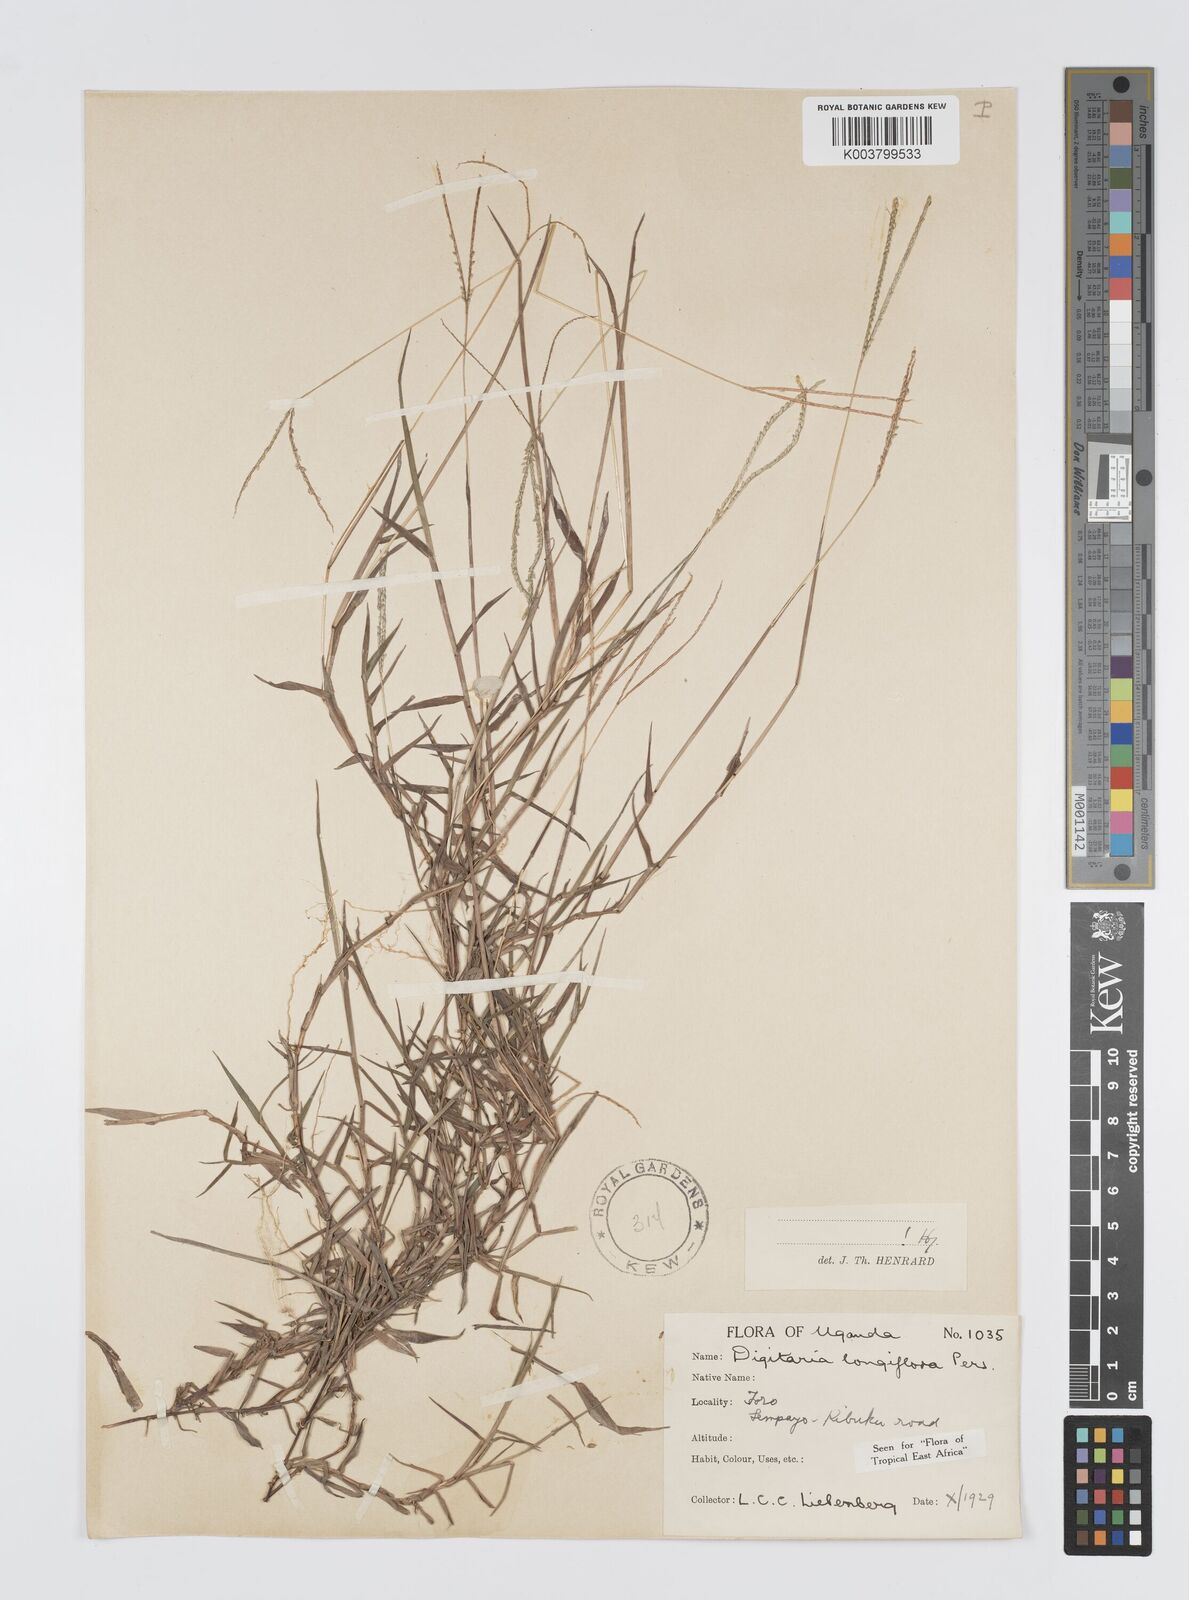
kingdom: Plantae
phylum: Tracheophyta
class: Liliopsida
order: Poales
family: Poaceae
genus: Digitaria
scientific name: Digitaria longiflora
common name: Wire crabgrass
